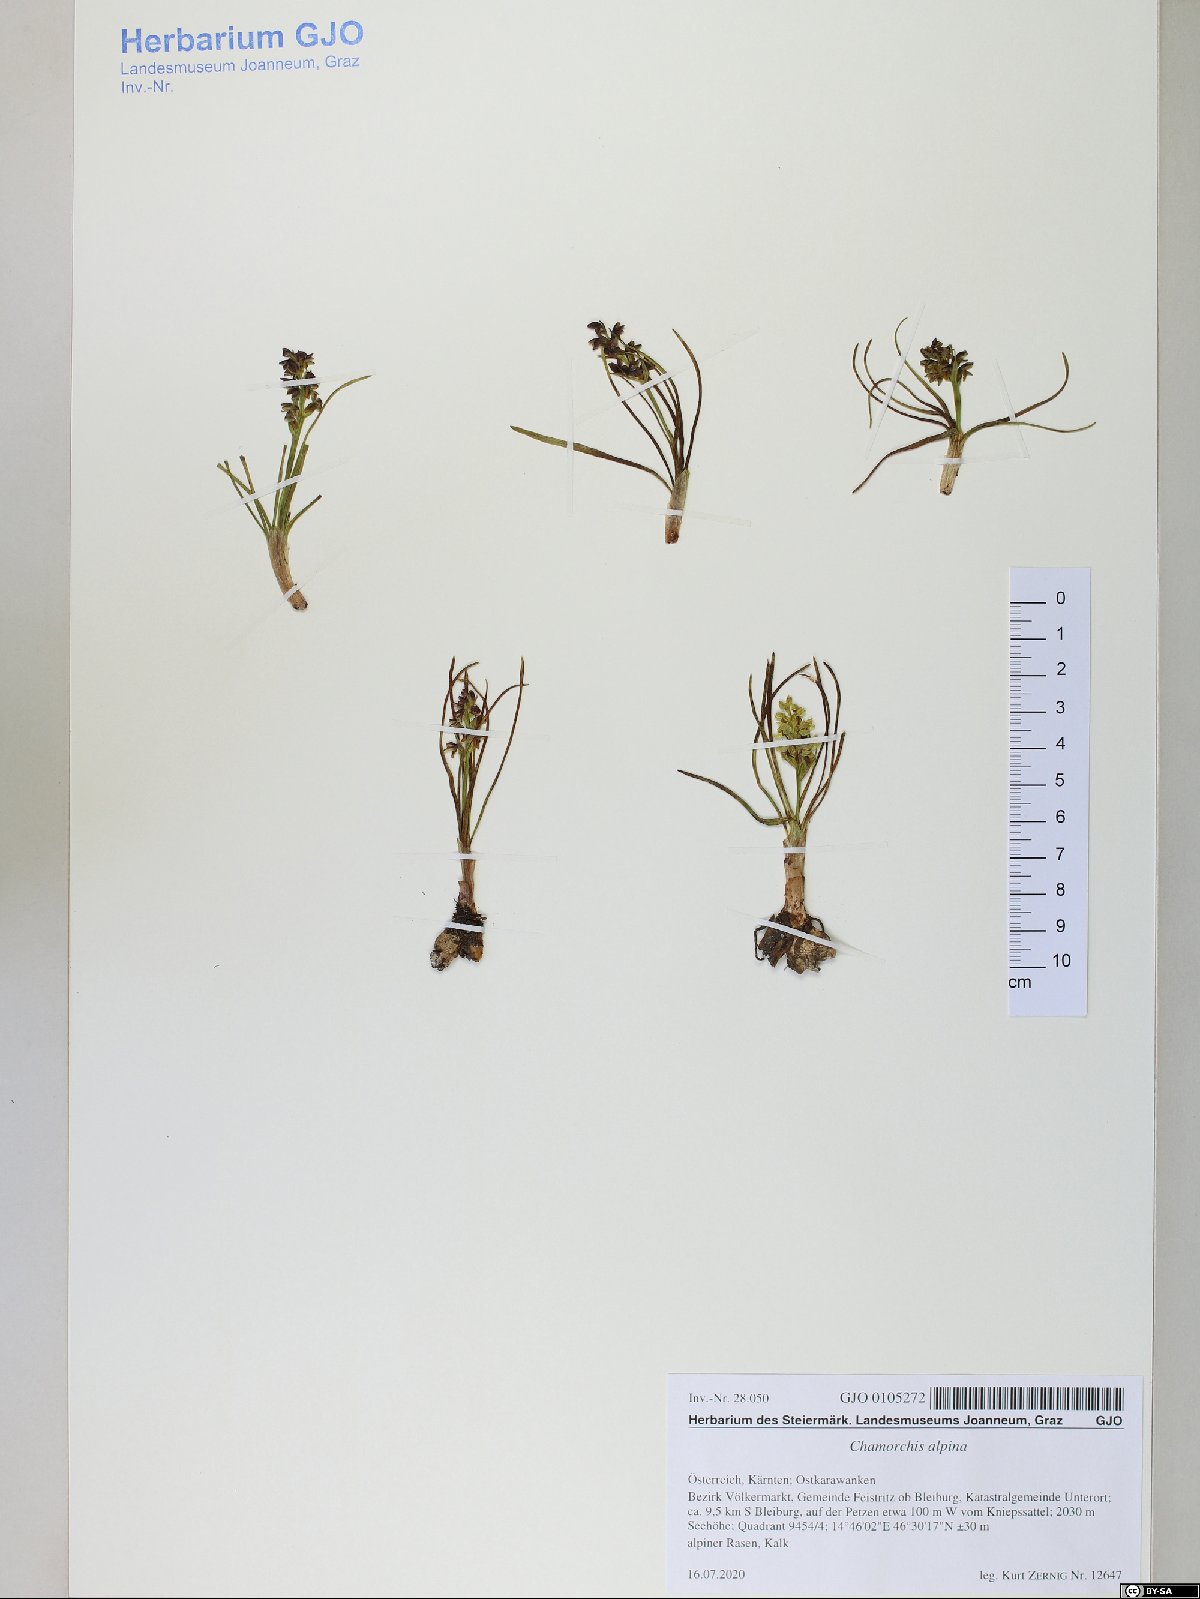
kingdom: Plantae
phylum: Tracheophyta
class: Liliopsida
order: Asparagales
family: Orchidaceae
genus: Chamorchis
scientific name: Chamorchis alpina
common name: Alpine chamorchis
